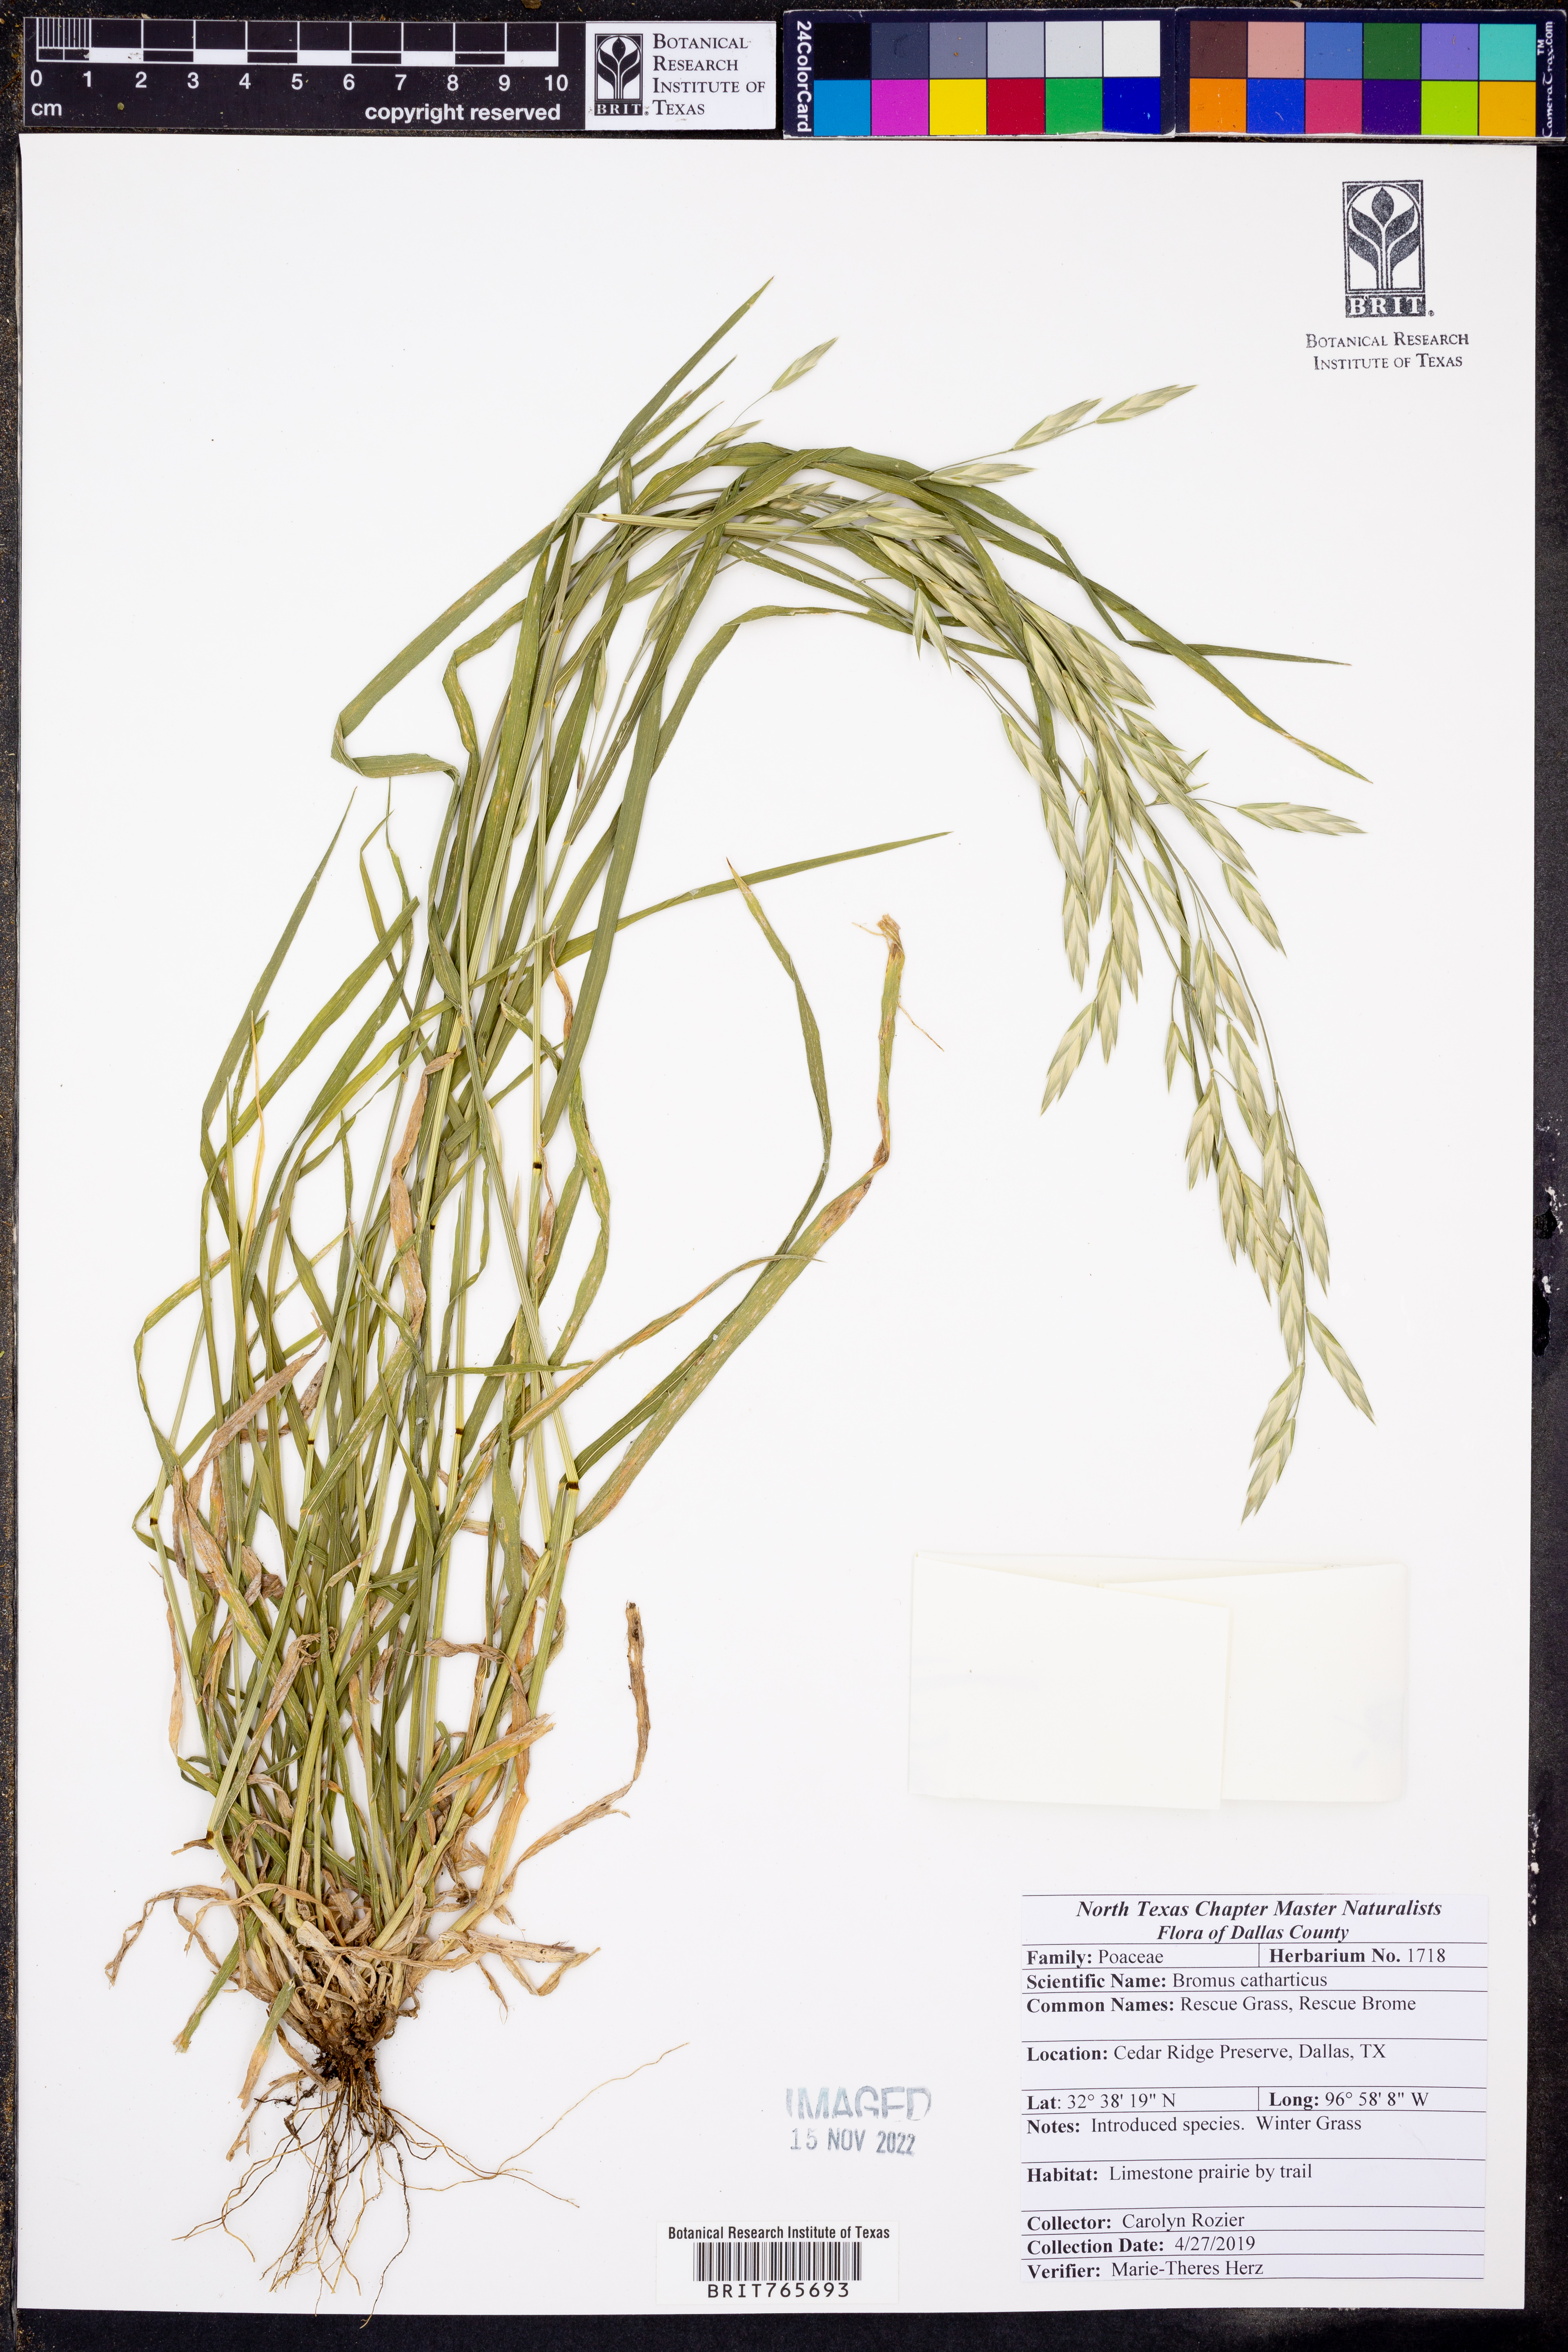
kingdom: Plantae
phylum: Tracheophyta
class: Liliopsida
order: Poales
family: Poaceae
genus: Bromus
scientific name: Bromus catharticus
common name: Rescuegrass
